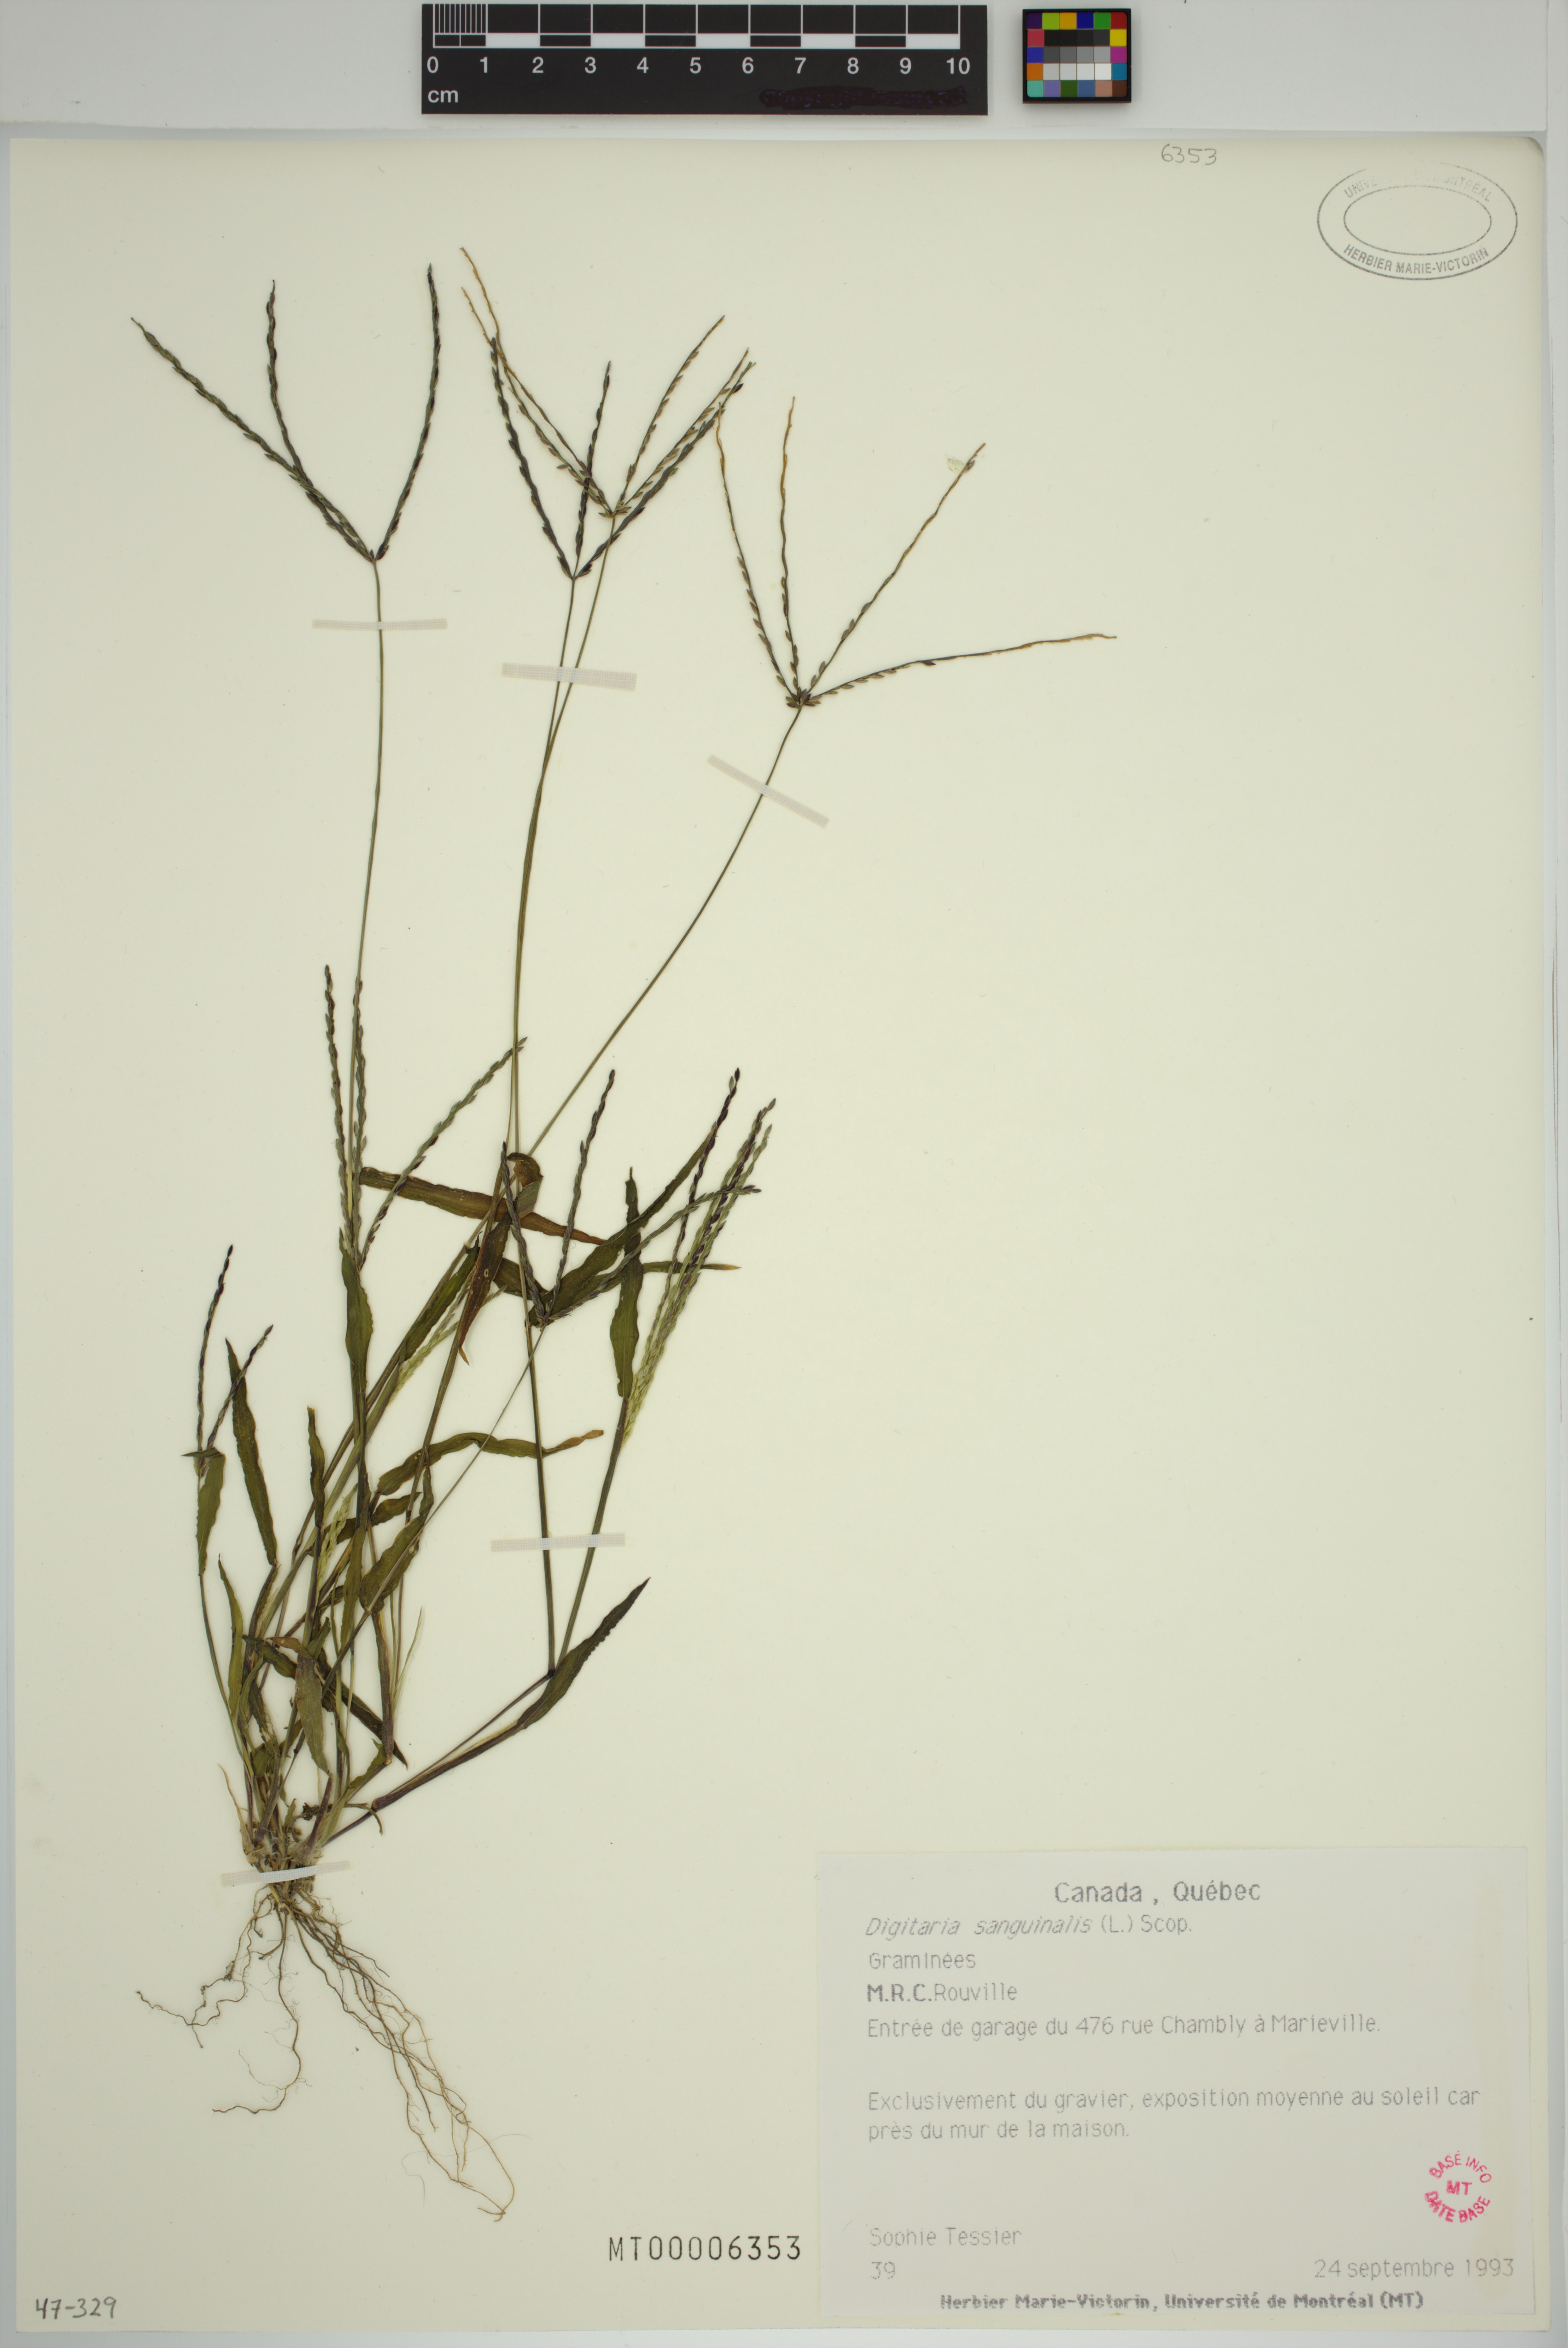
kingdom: Plantae
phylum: Tracheophyta
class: Liliopsida
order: Poales
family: Poaceae
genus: Digitaria
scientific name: Digitaria sanguinalis
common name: Hairy crabgrass
